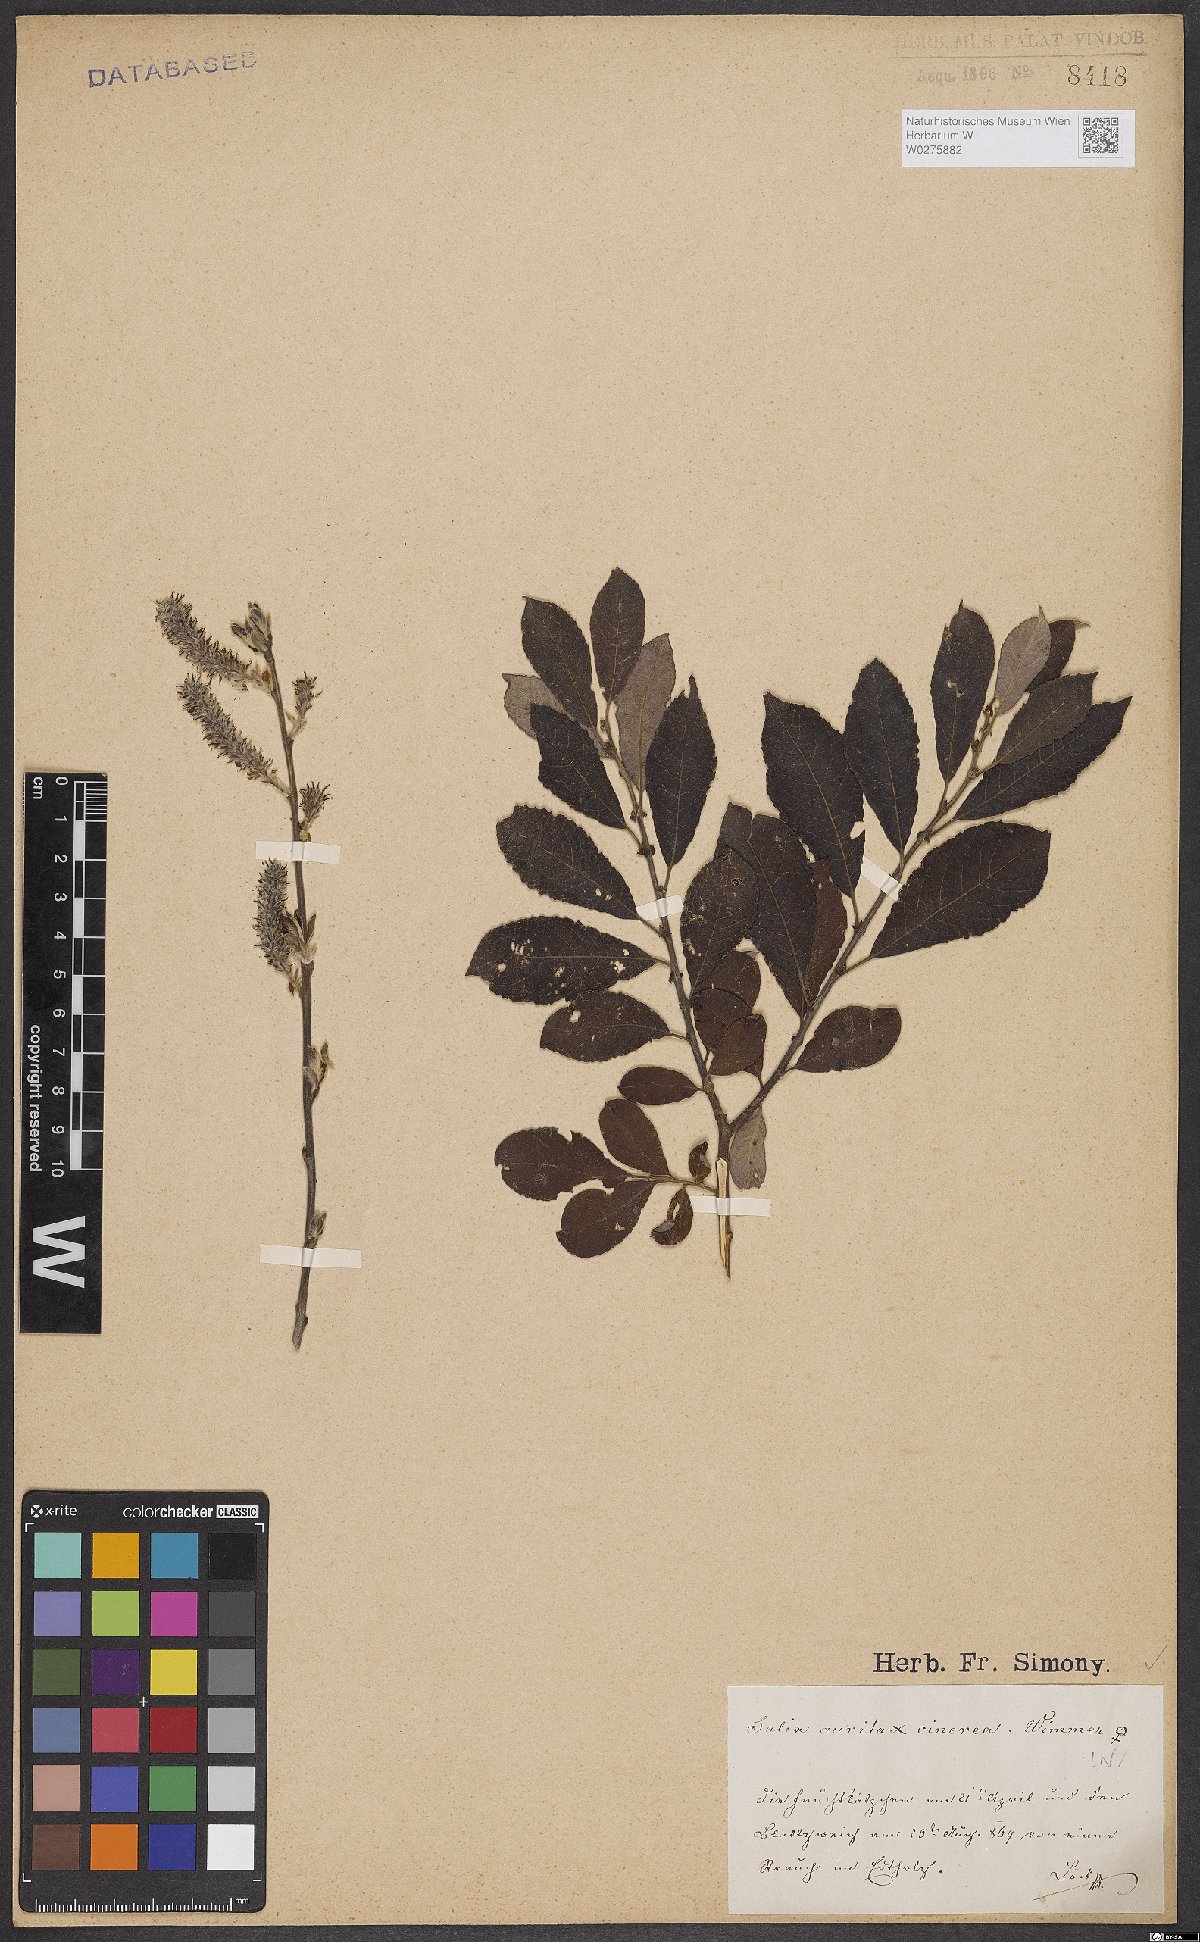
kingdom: Plantae
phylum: Tracheophyta
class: Magnoliopsida
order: Malpighiales
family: Salicaceae
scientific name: Salicaceae
